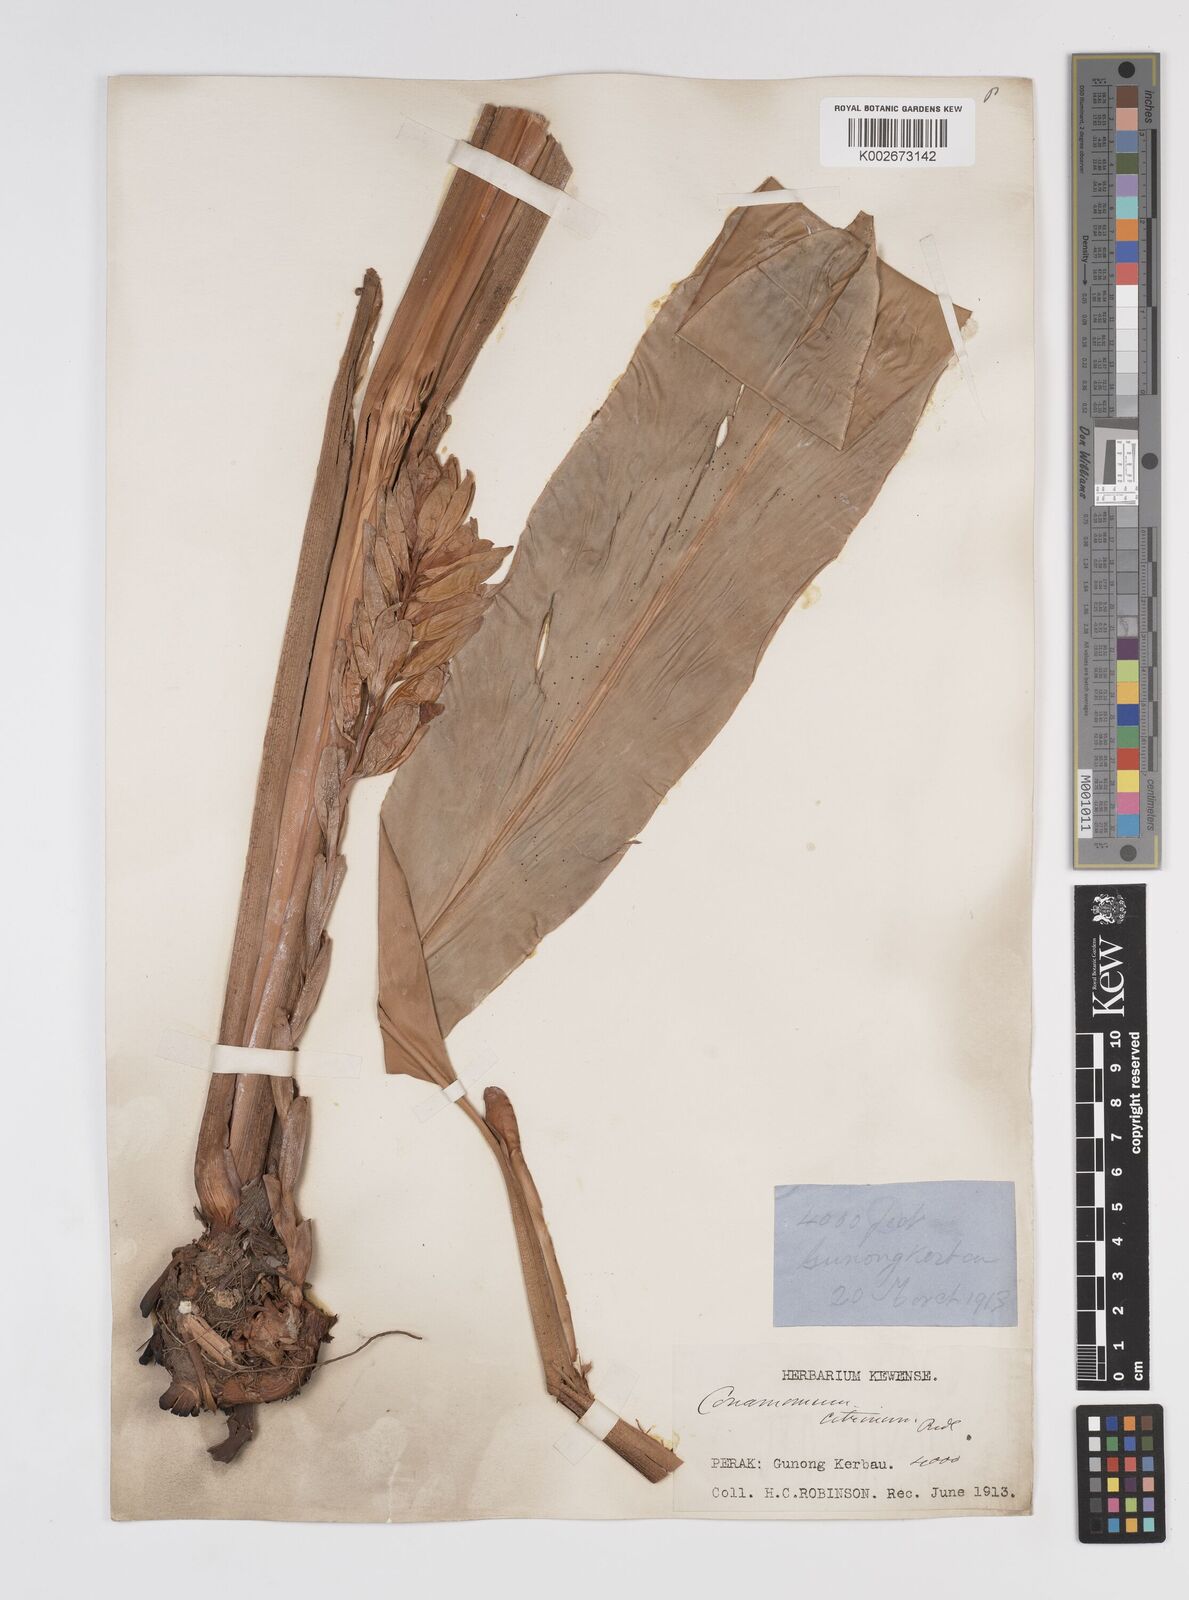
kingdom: Plantae
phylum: Tracheophyta
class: Liliopsida
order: Zingiberales
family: Zingiberaceae
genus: Conamomum
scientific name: Conamomum citrinum
